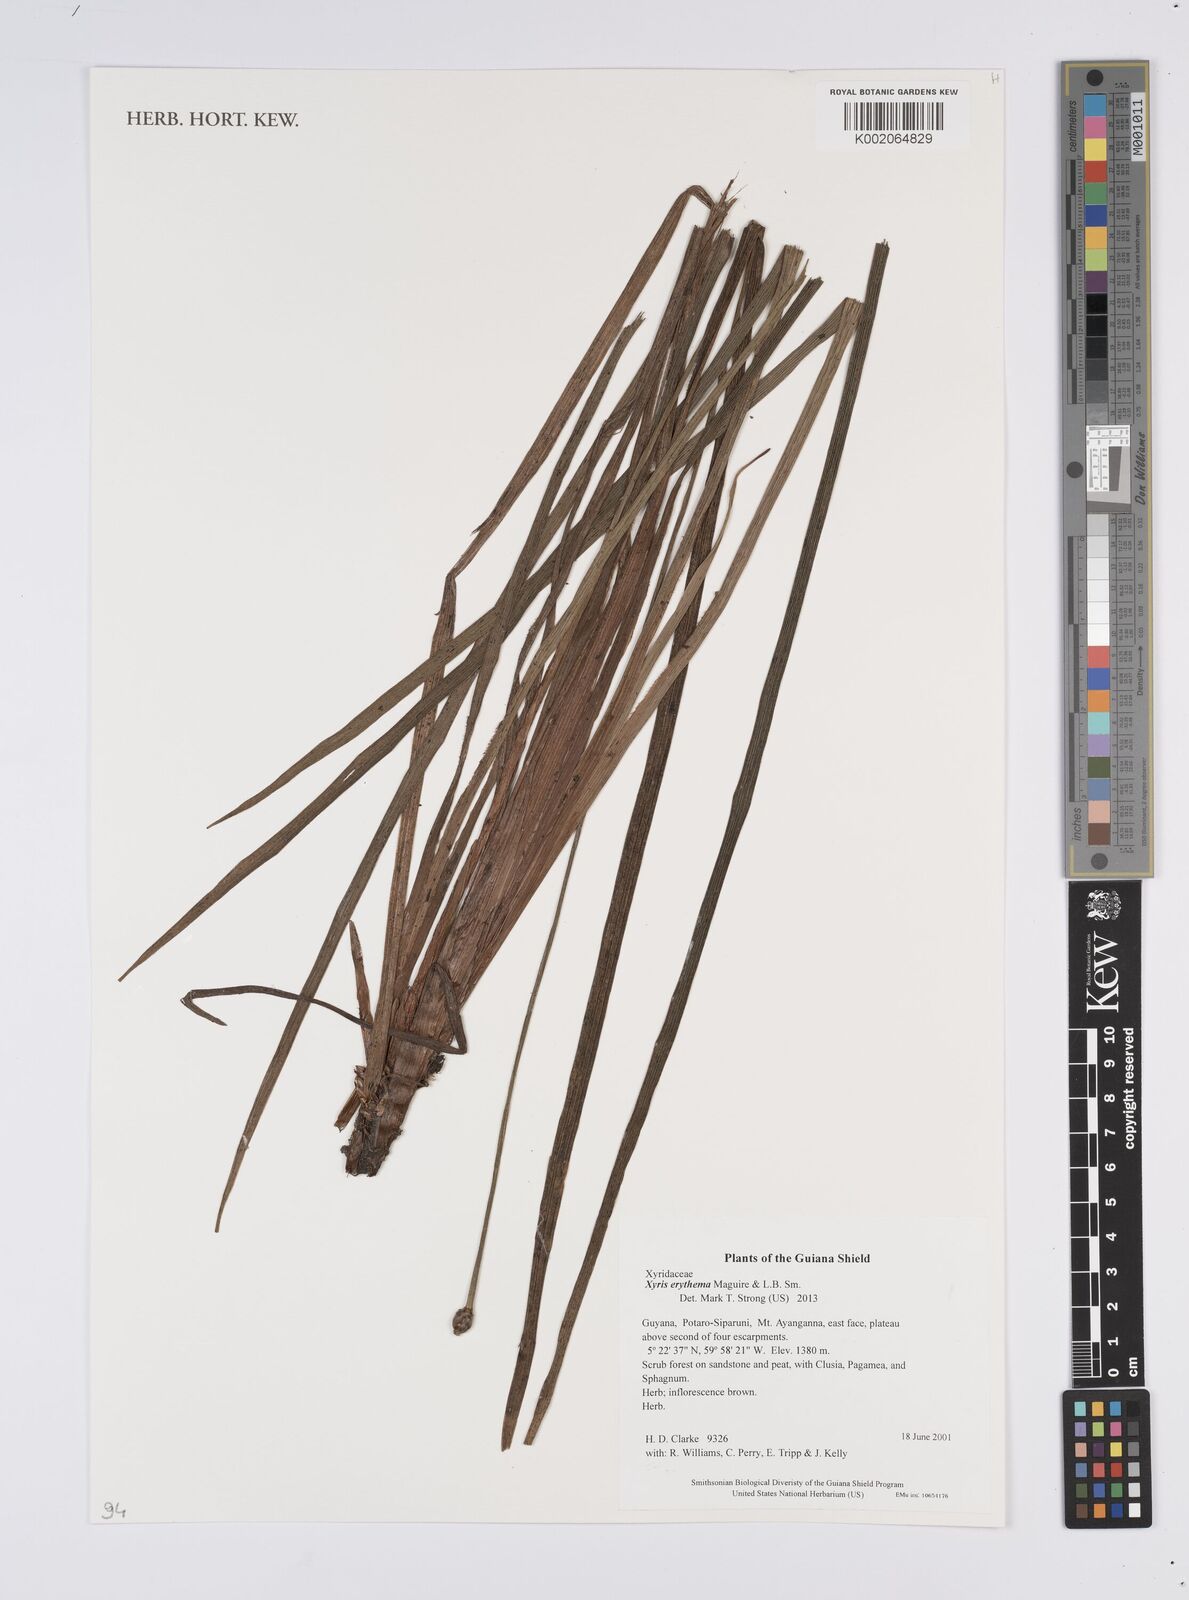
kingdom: Plantae
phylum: Tracheophyta
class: Liliopsida
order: Poales
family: Xyridaceae
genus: Xyris
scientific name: Xyris fallax
